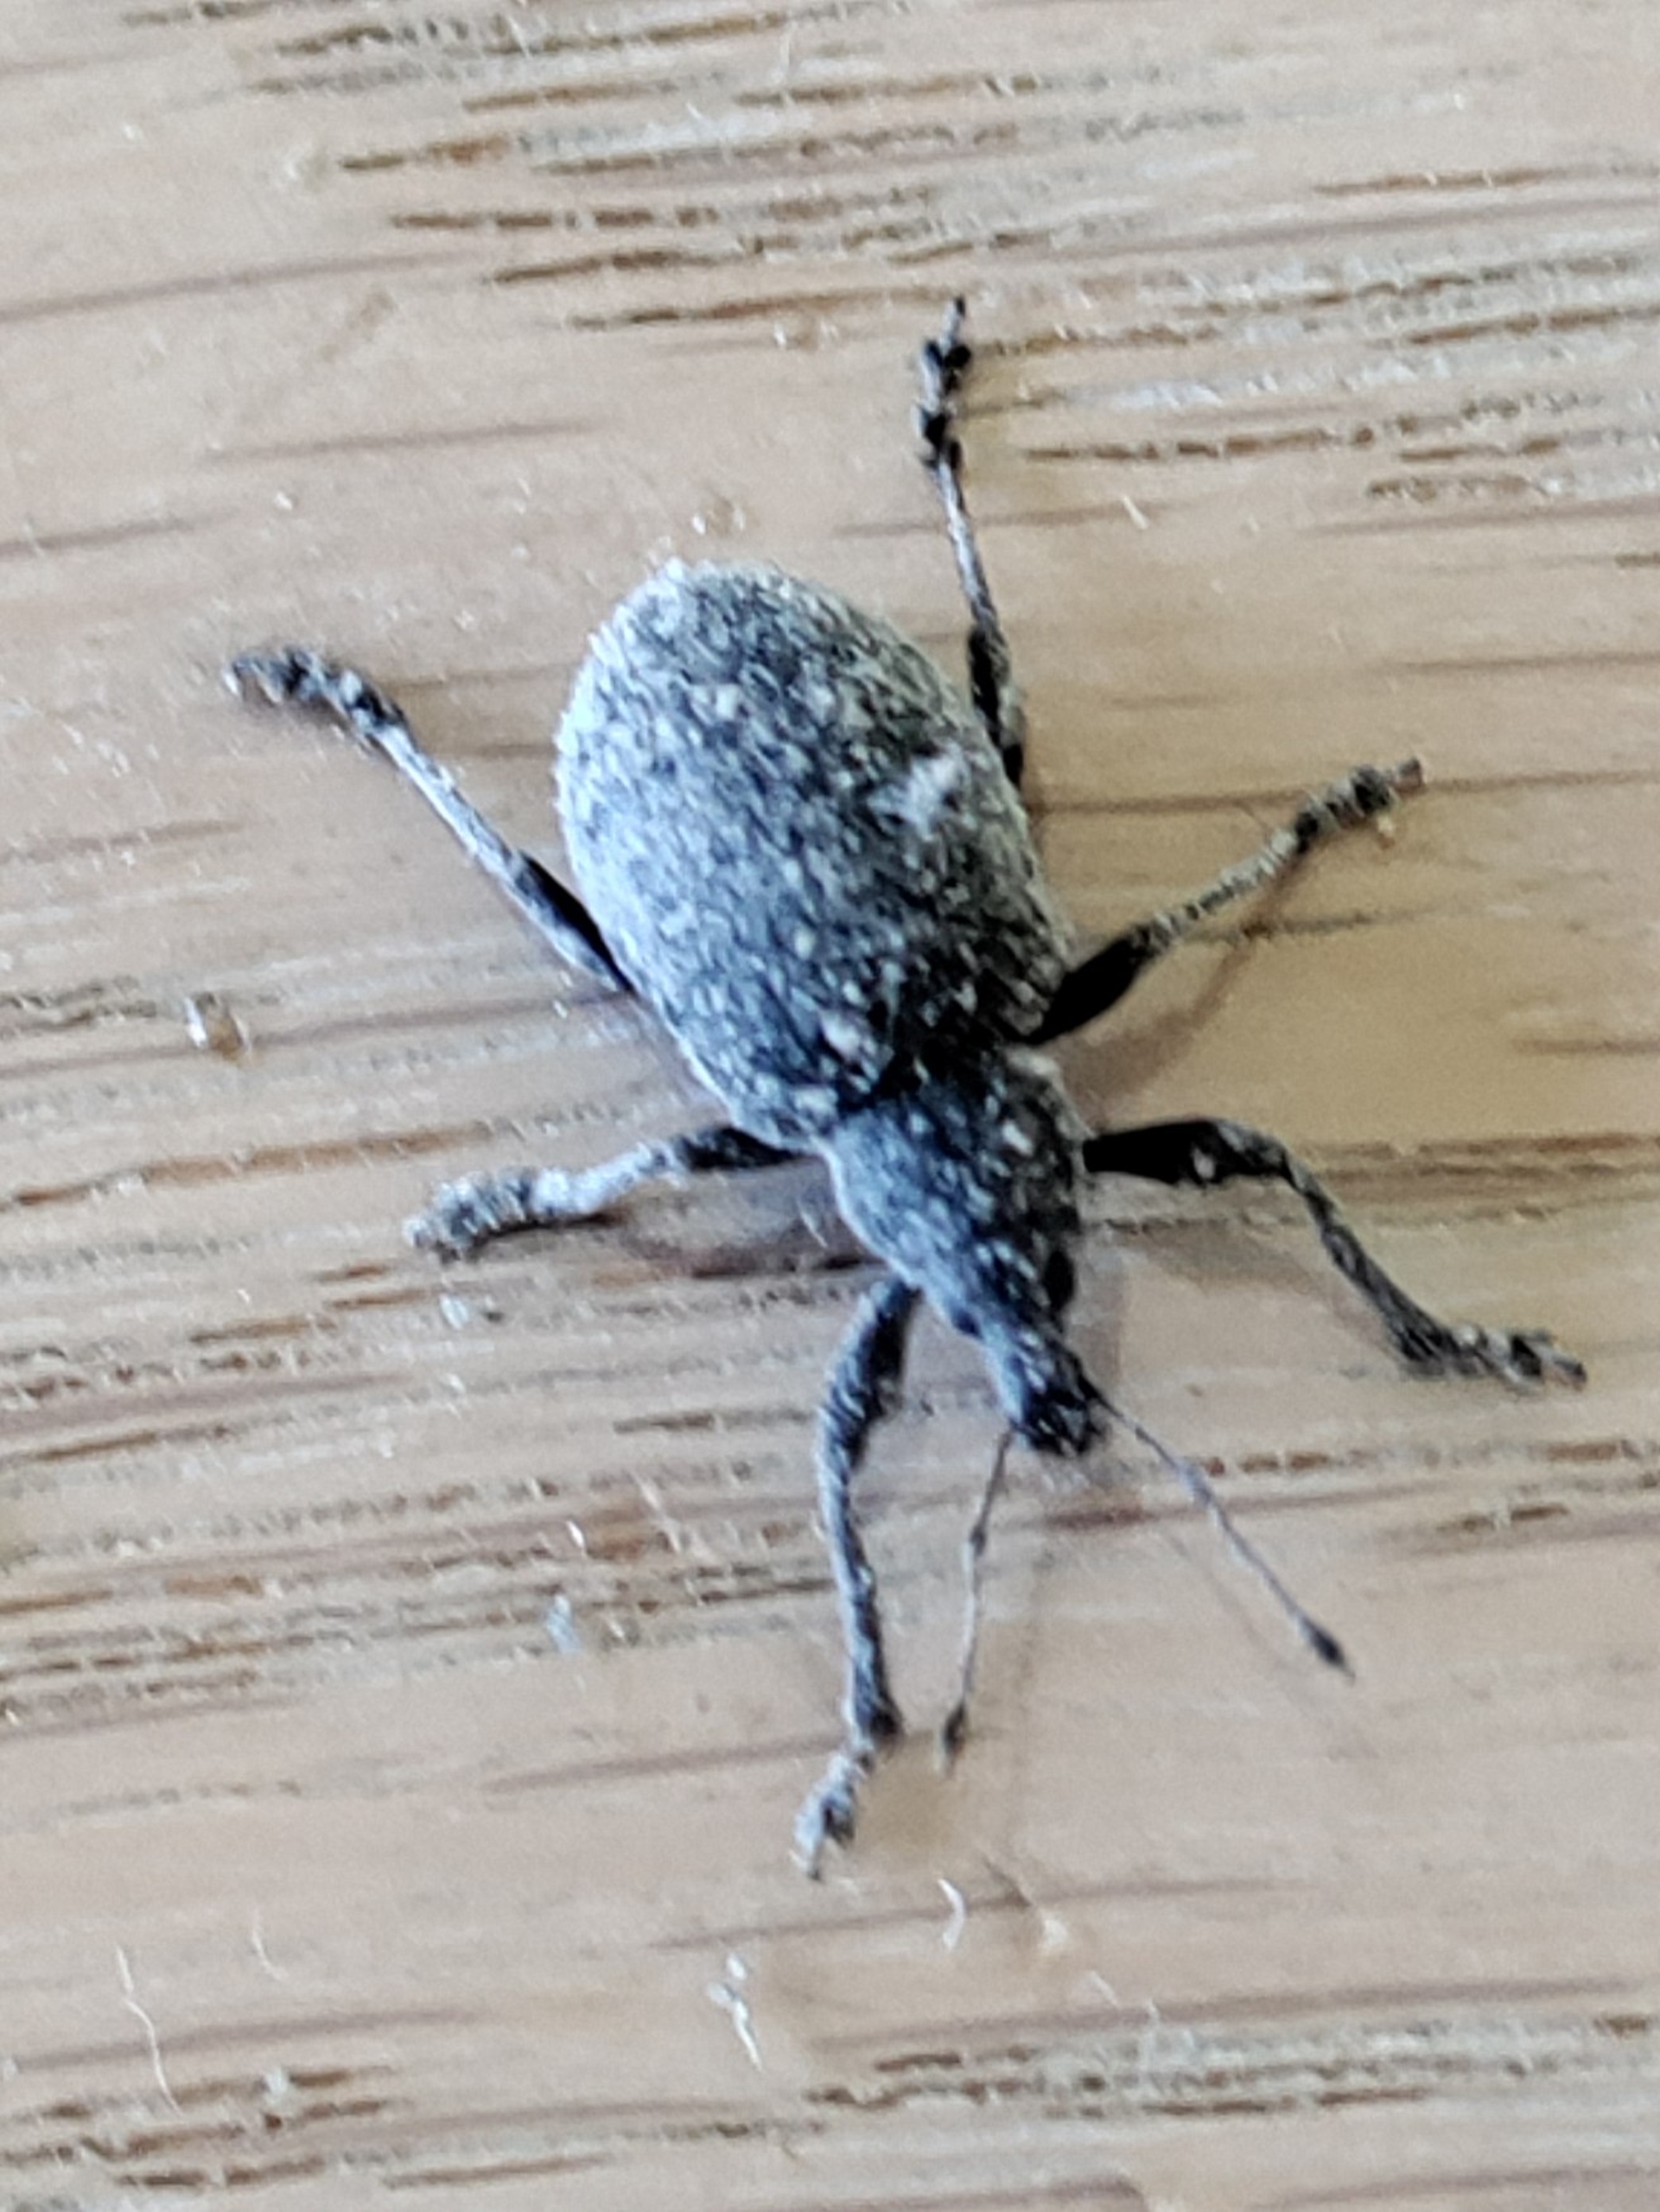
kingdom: Animalia
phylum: Arthropoda
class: Insecta
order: Coleoptera
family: Curculionidae
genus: Liophloeus
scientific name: Liophloeus tessulatus
